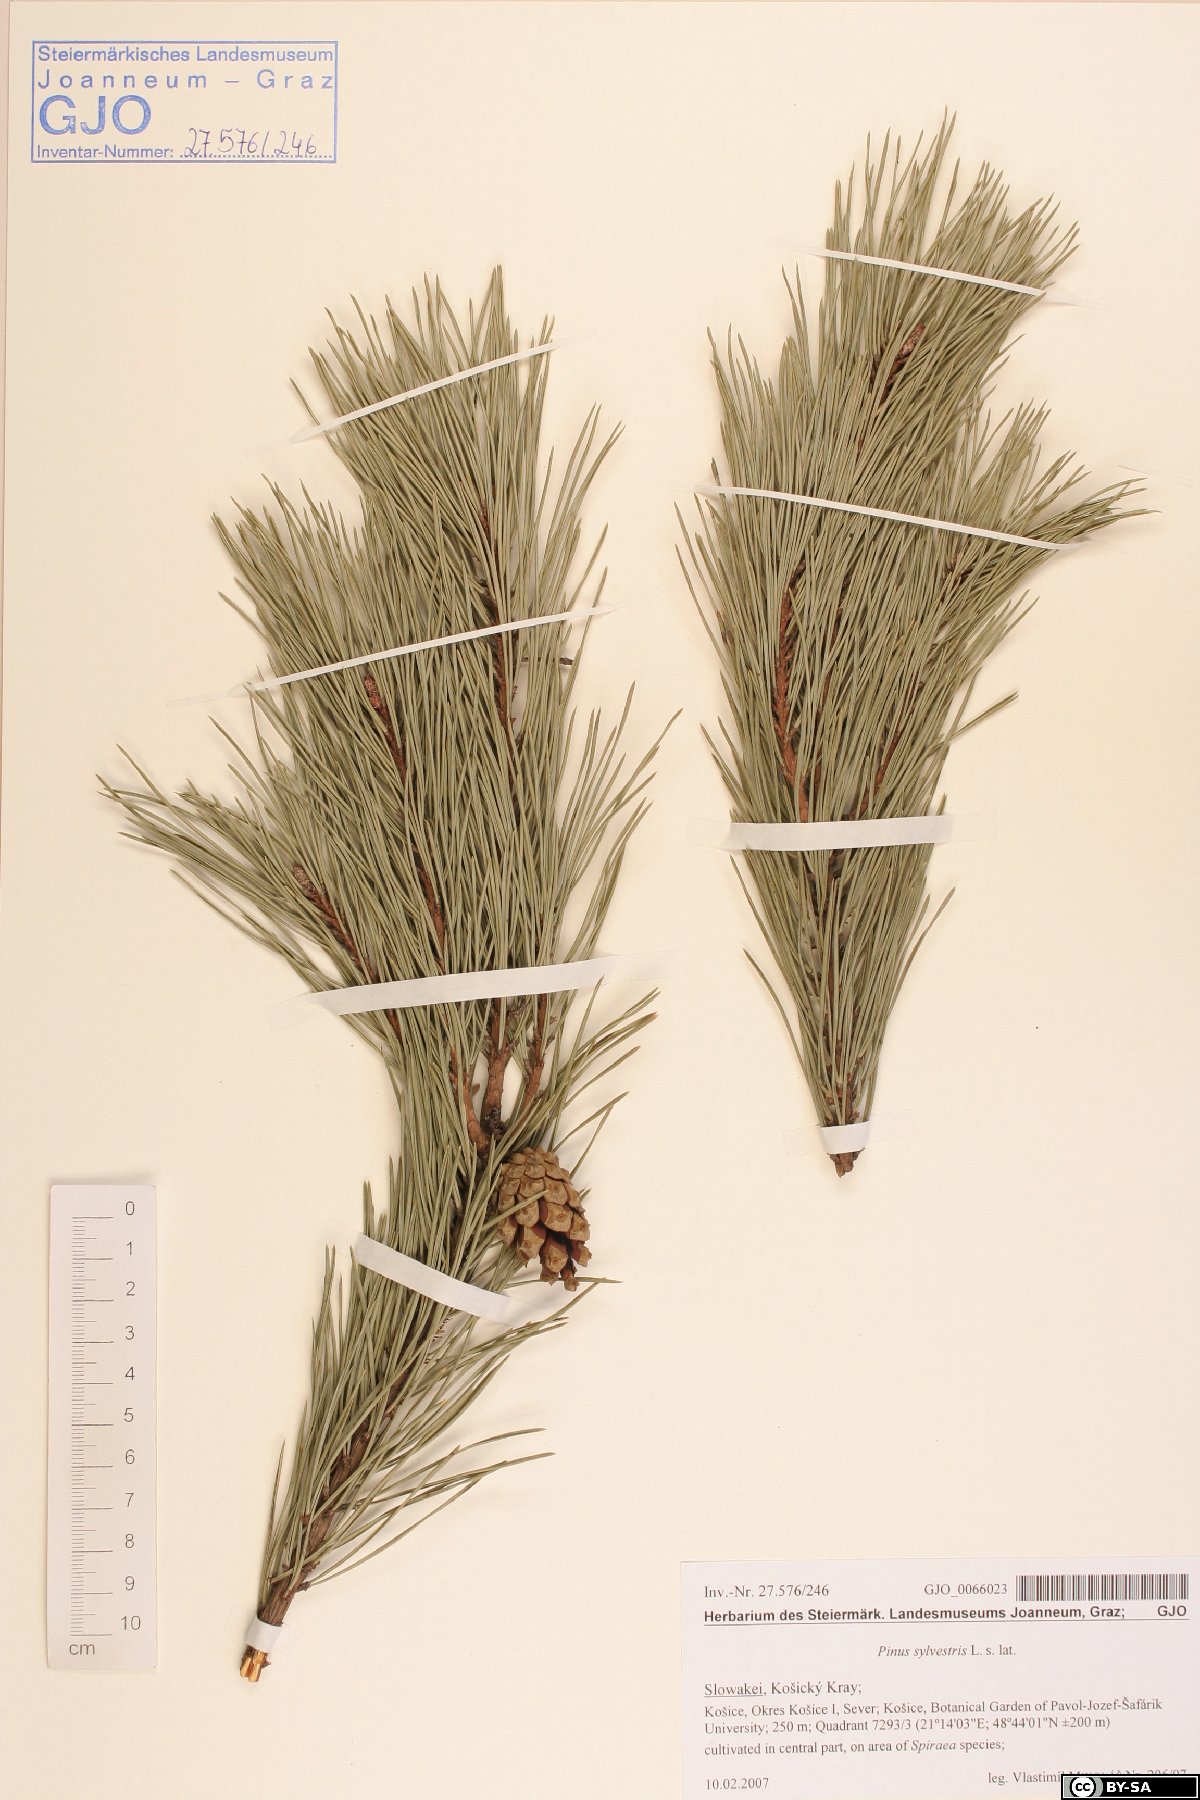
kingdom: Plantae
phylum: Tracheophyta
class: Pinopsida
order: Pinales
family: Pinaceae
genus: Pinus
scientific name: Pinus sylvestris
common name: Scots pine
